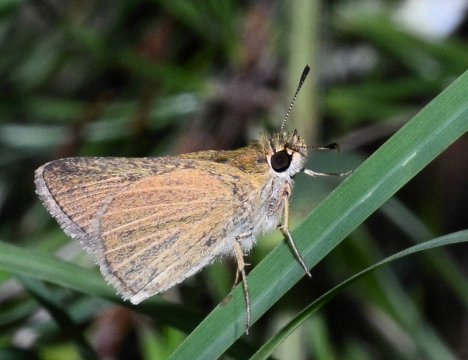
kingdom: Animalia
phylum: Arthropoda
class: Insecta
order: Lepidoptera
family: Hesperiidae
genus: Nastra
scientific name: Nastra lherminier
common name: Swarthy Skipper
